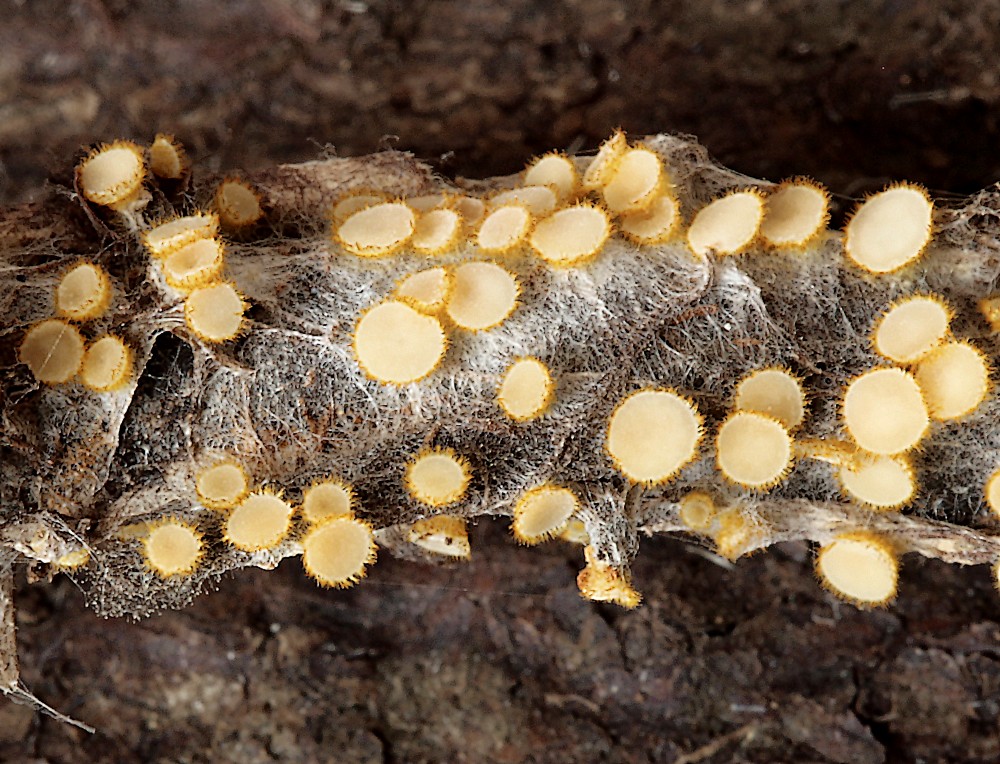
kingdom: Fungi
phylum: Ascomycota
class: Leotiomycetes
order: Helotiales
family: Arachnopezizaceae
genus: Arachnopeziza
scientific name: Arachnopeziza aurelia
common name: flamme-spindskive
